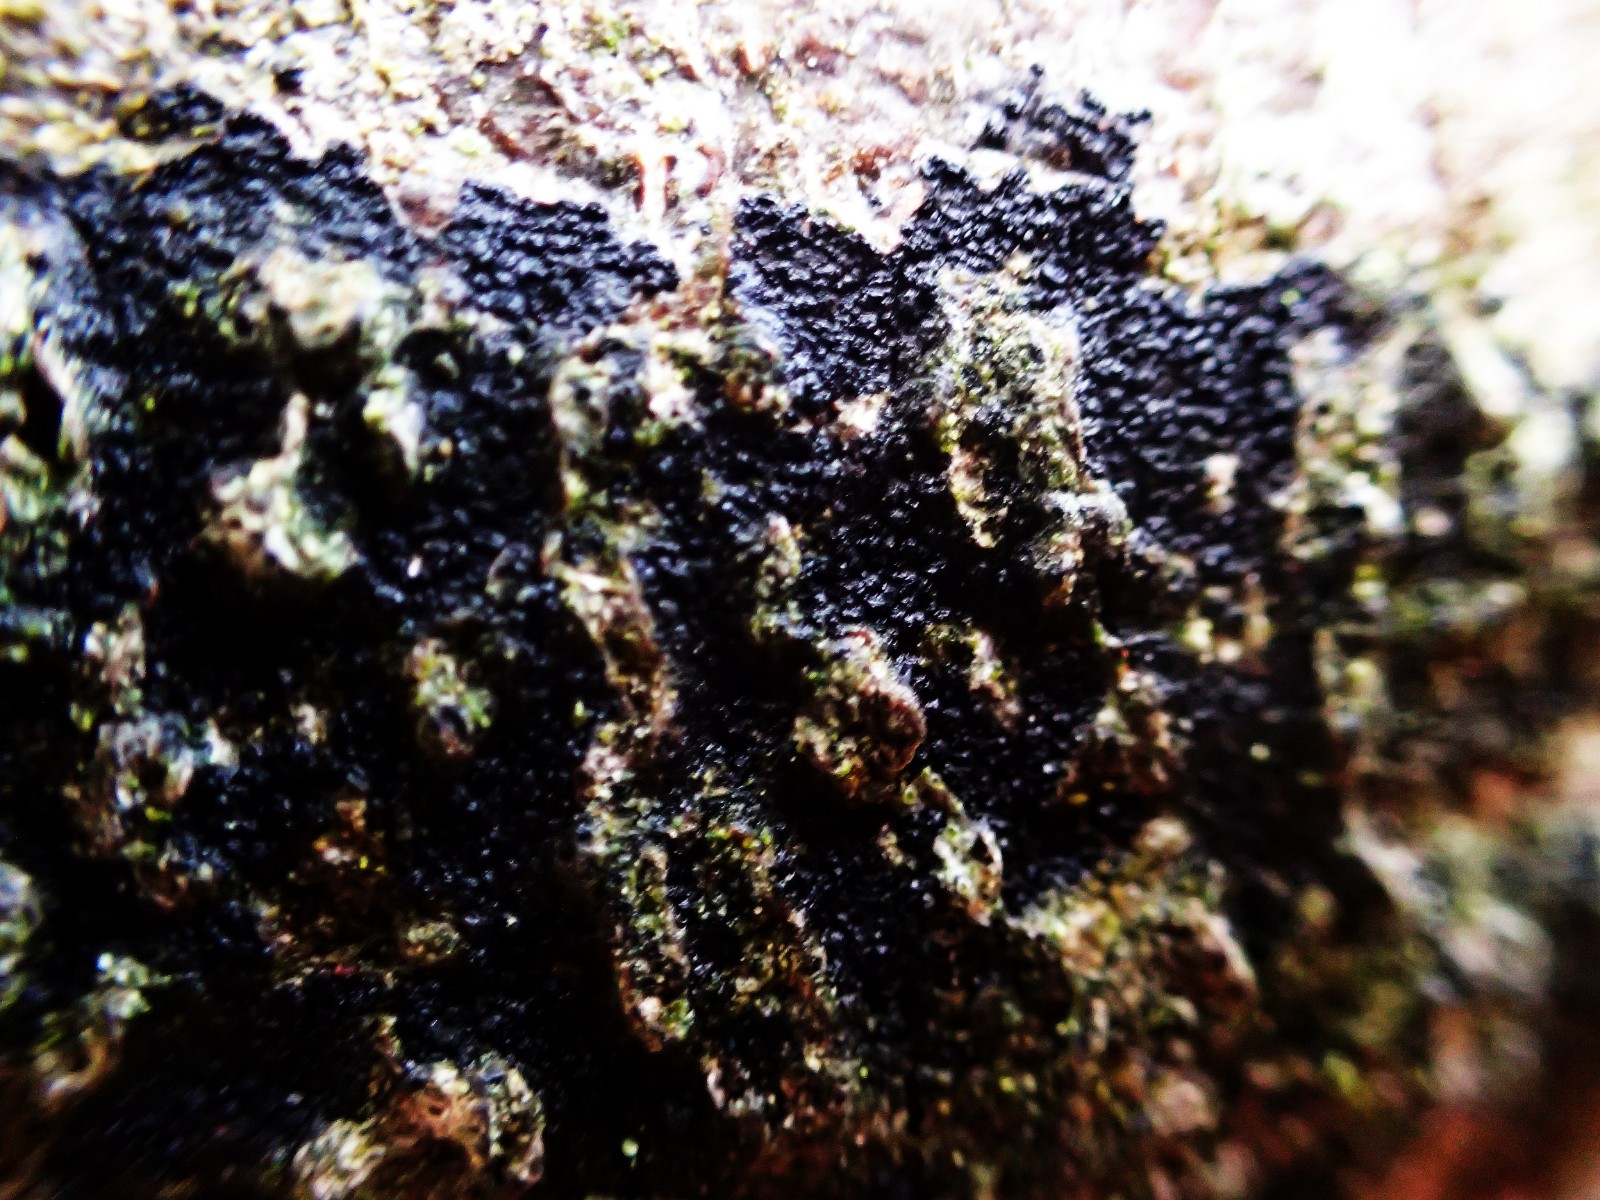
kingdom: Fungi
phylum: Ascomycota
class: Leotiomycetes
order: Rhytismatales
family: Ascodichaenaceae
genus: Ascodichaena
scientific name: Ascodichaena rugosa
